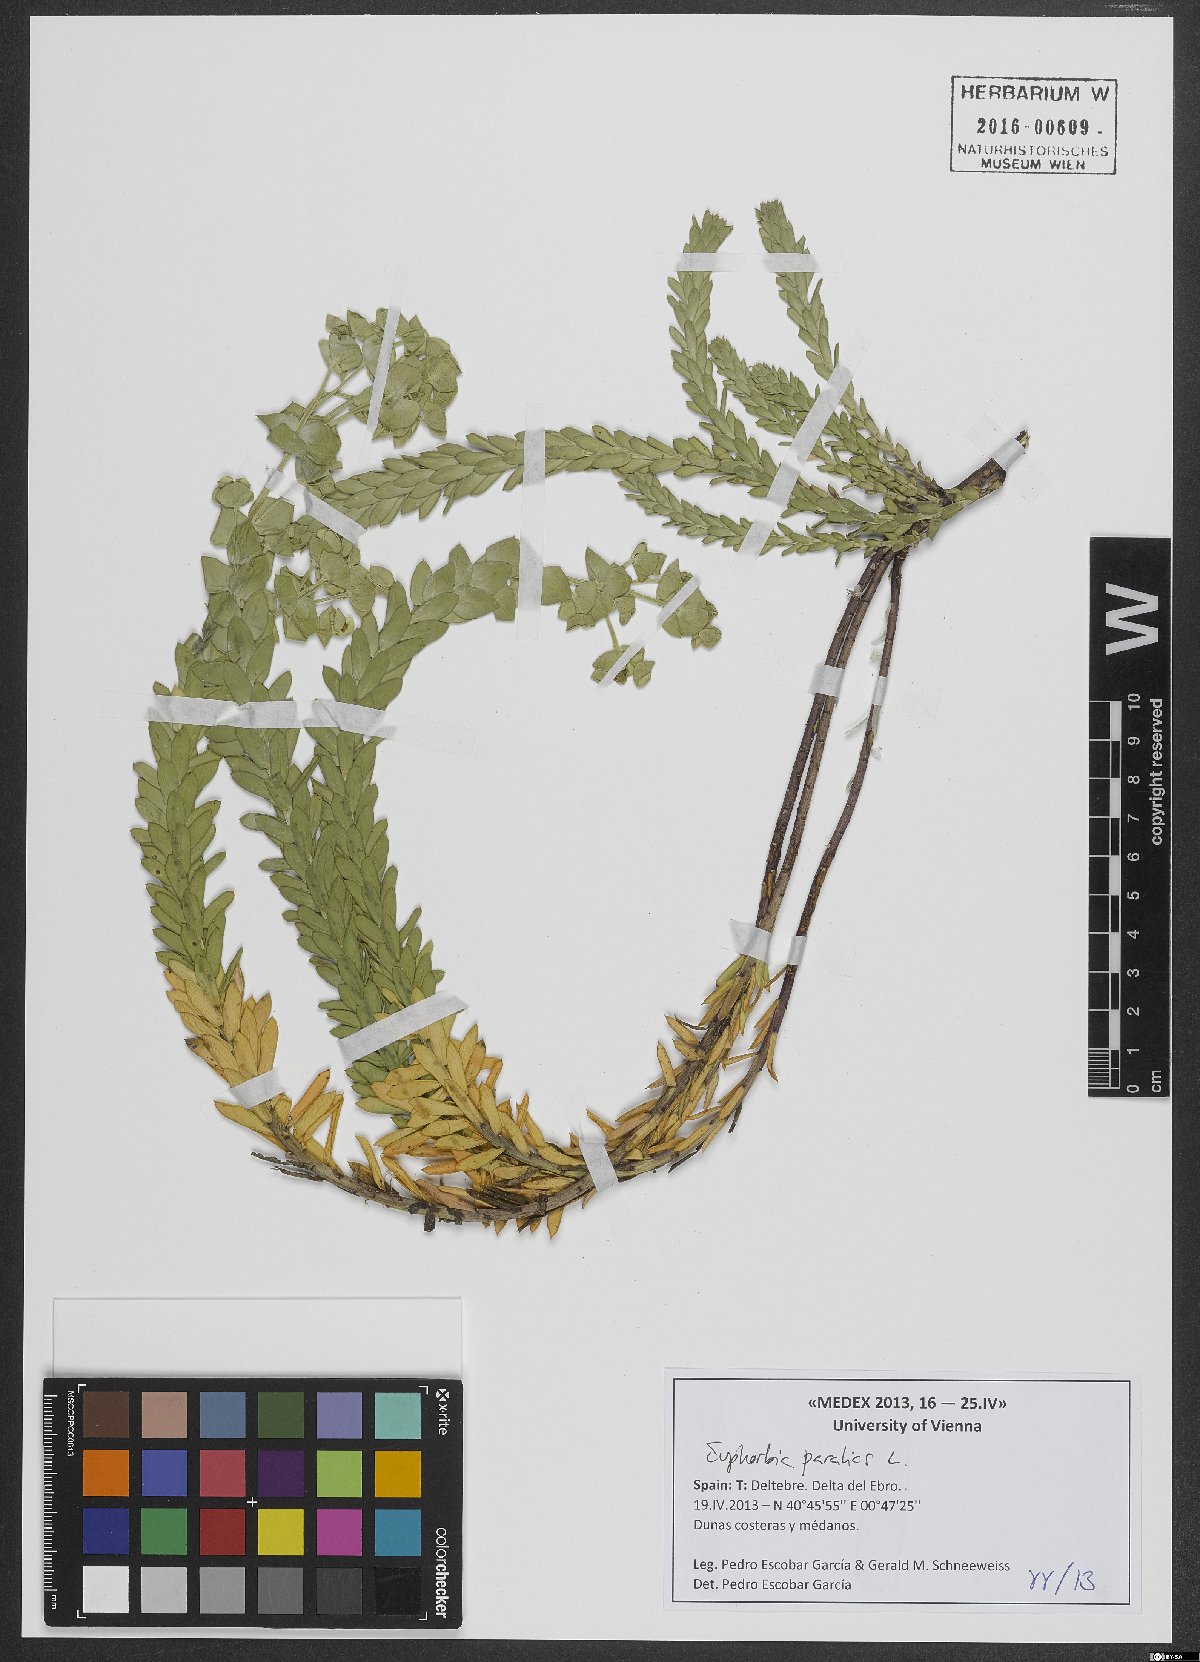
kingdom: Plantae
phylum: Tracheophyta
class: Magnoliopsida
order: Malpighiales
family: Euphorbiaceae
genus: Euphorbia
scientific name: Euphorbia paralias
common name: Sea spurge
